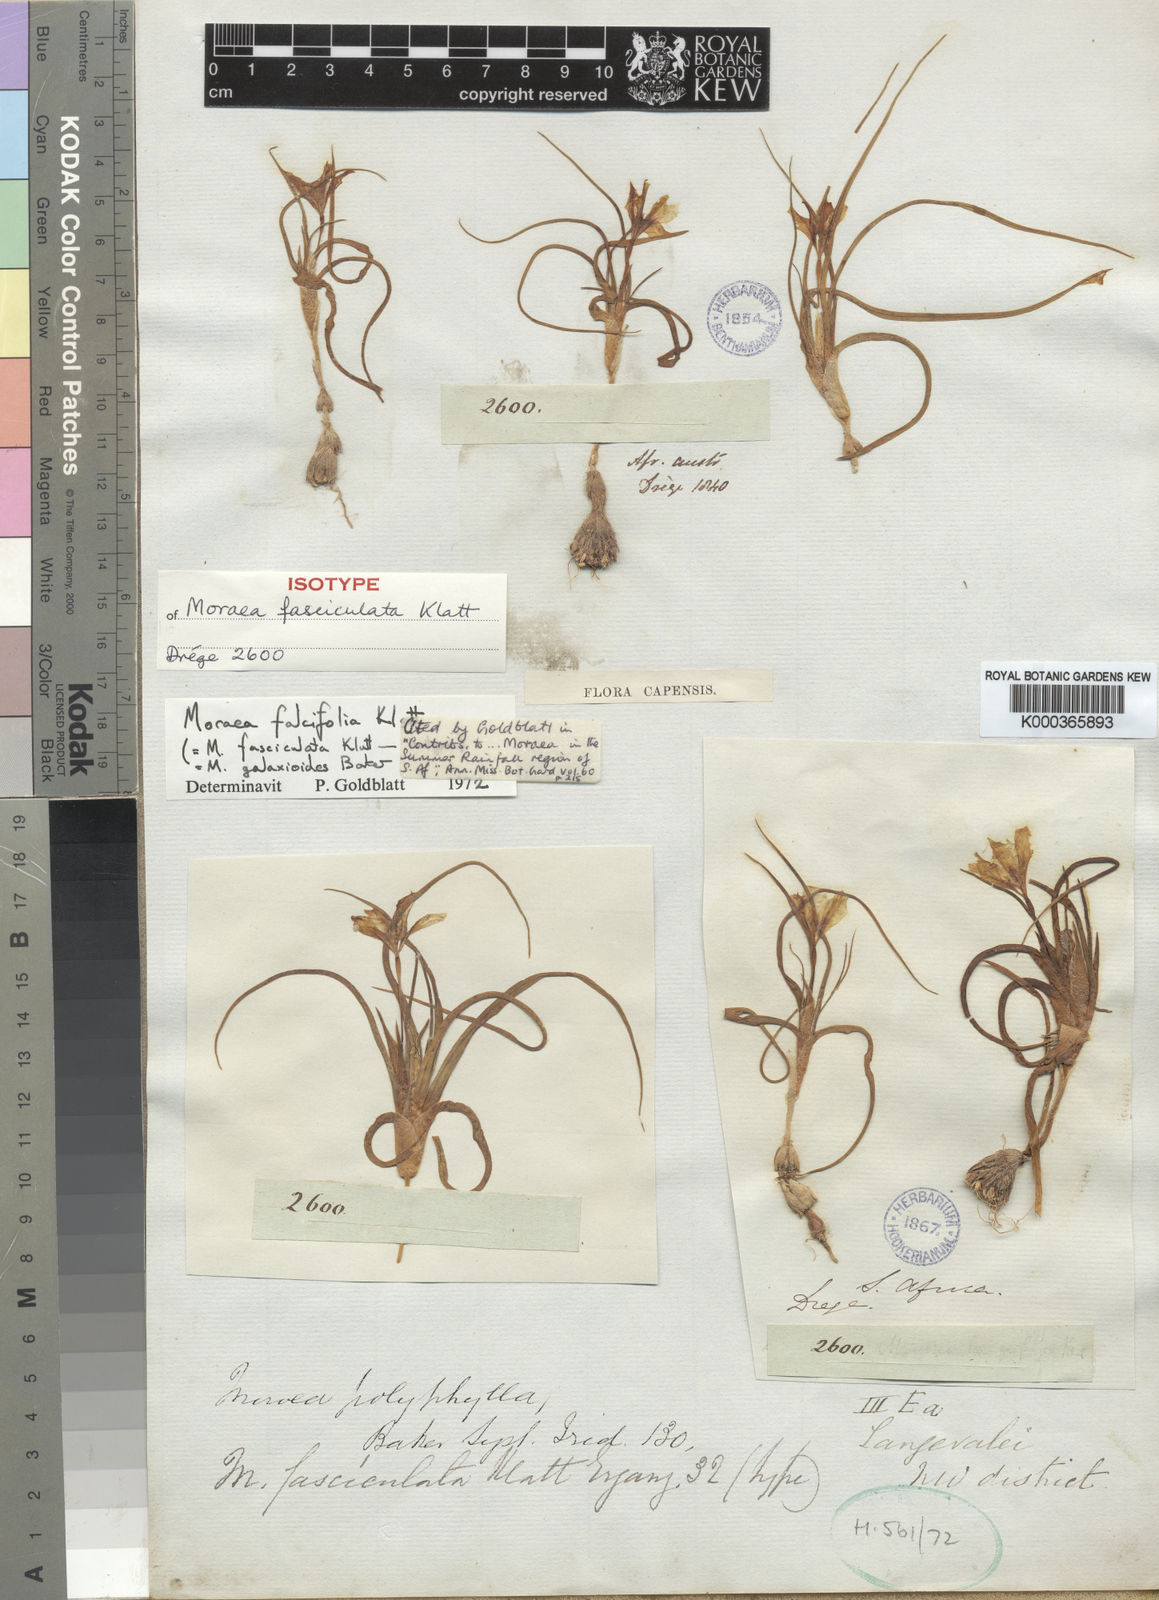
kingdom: Plantae
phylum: Tracheophyta
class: Liliopsida
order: Asparagales
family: Iridaceae
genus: Moraea
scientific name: Moraea falcifolia
